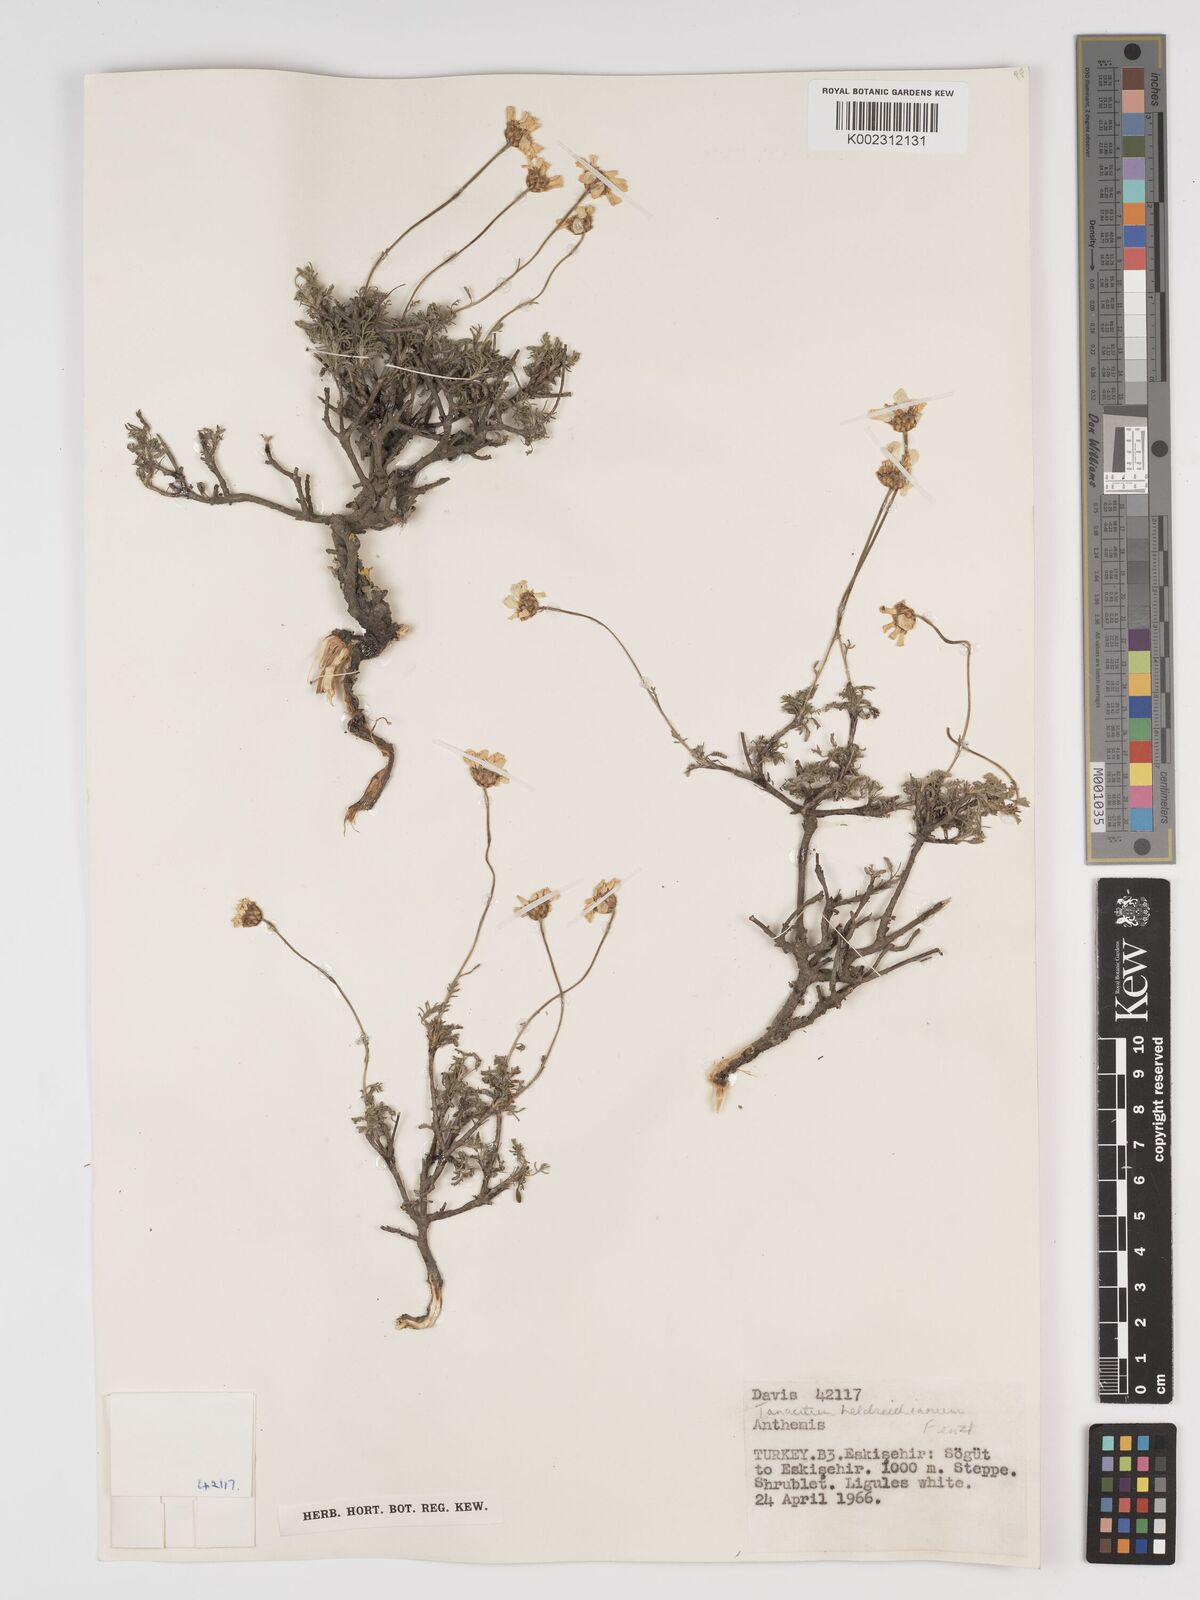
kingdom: Plantae
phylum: Tracheophyta
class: Magnoliopsida
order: Asterales
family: Asteraceae
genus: Tanacetum
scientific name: Tanacetum niveum
